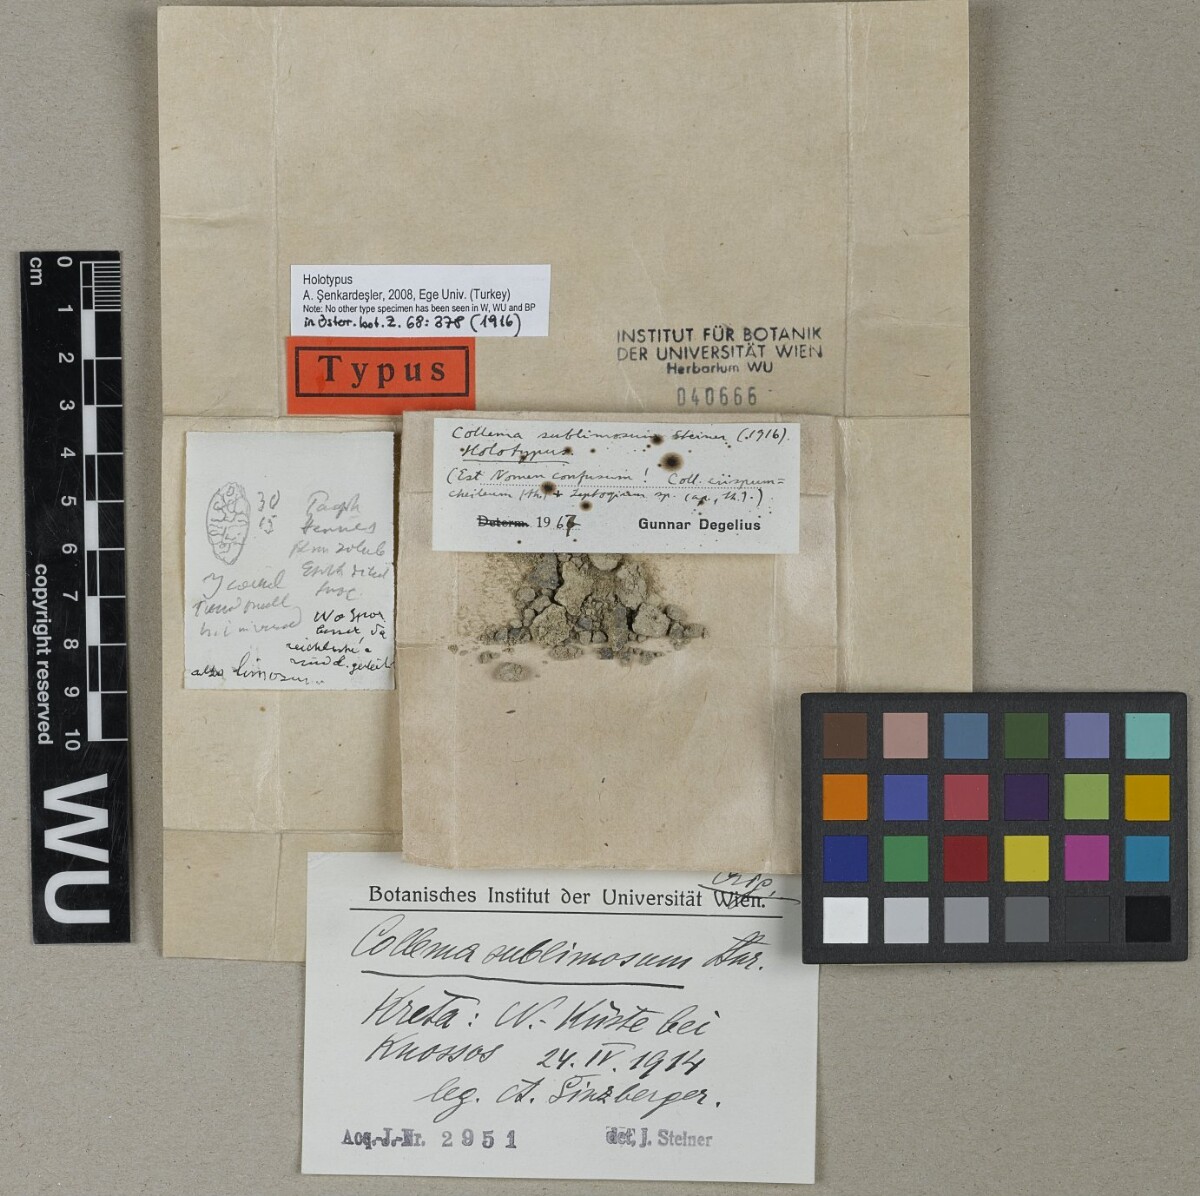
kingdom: Fungi
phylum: Ascomycota
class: Lecanoromycetes
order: Peltigerales
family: Collemataceae
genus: Collema
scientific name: Collema
